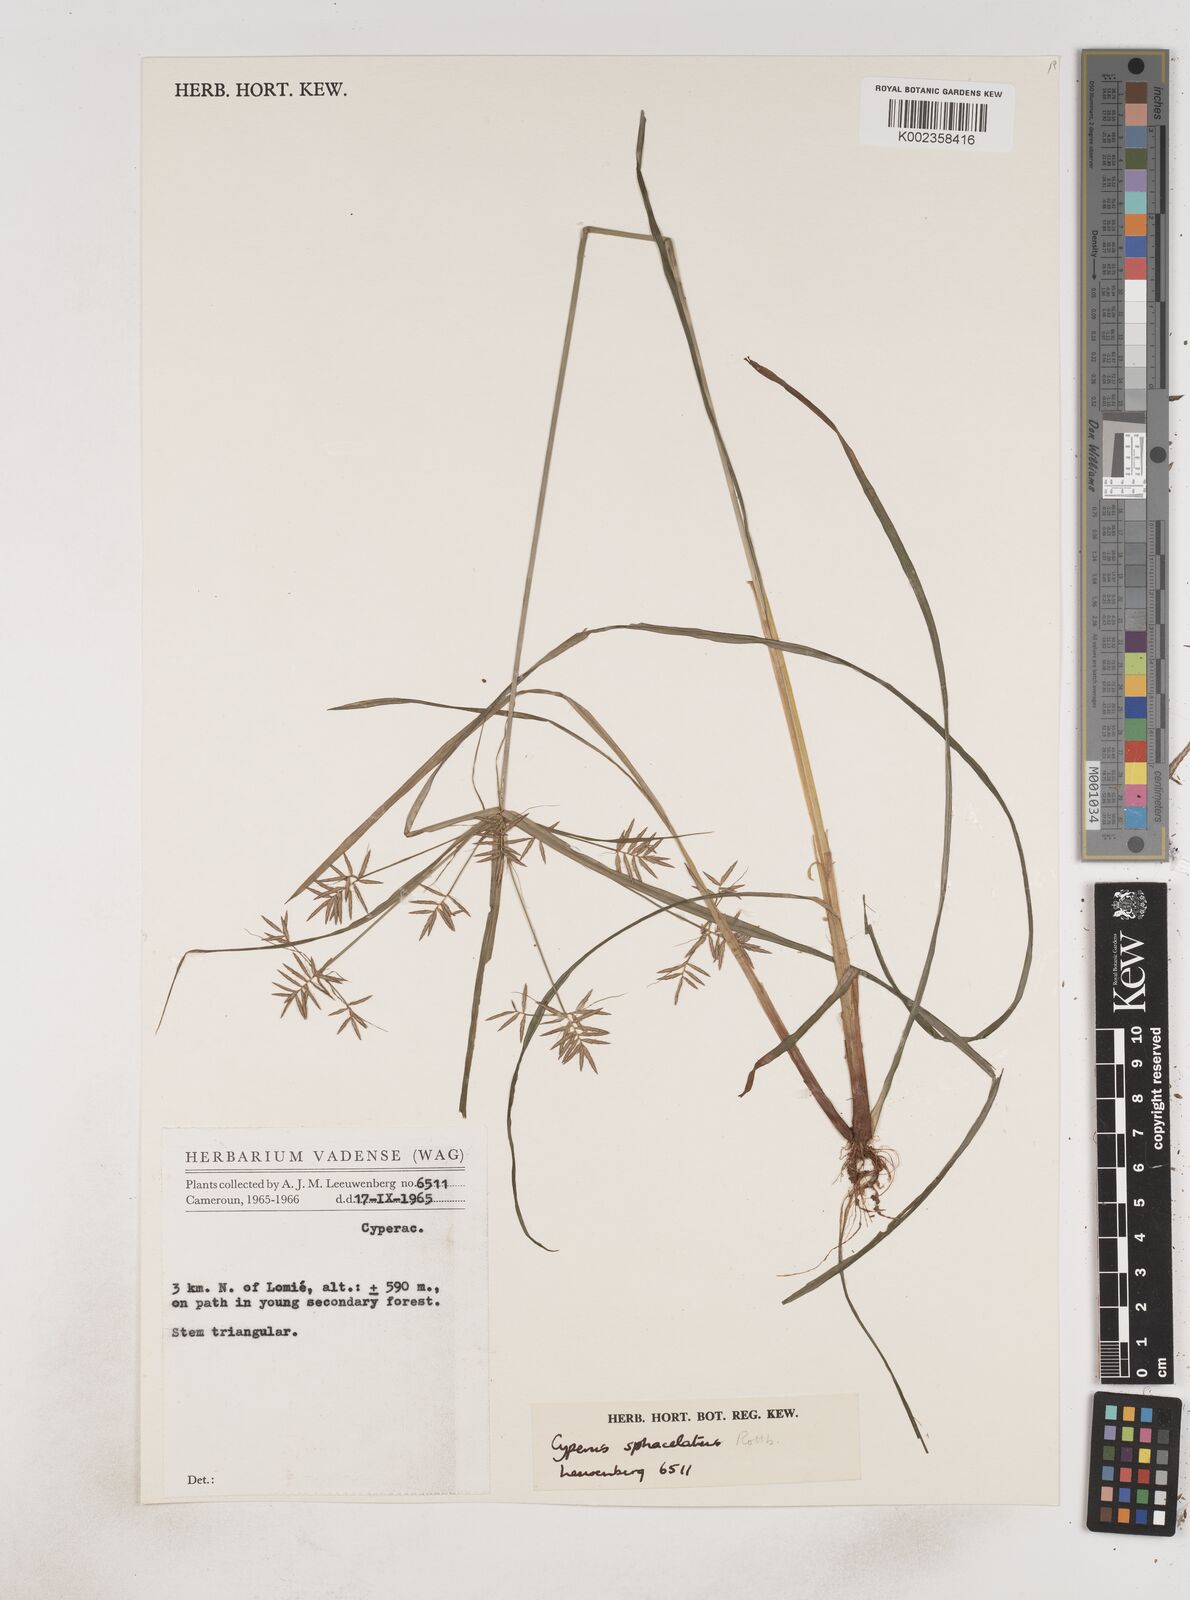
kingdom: Plantae
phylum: Tracheophyta
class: Liliopsida
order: Poales
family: Cyperaceae
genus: Cyperus
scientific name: Cyperus sphacelatus
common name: Roadside flatsedge
